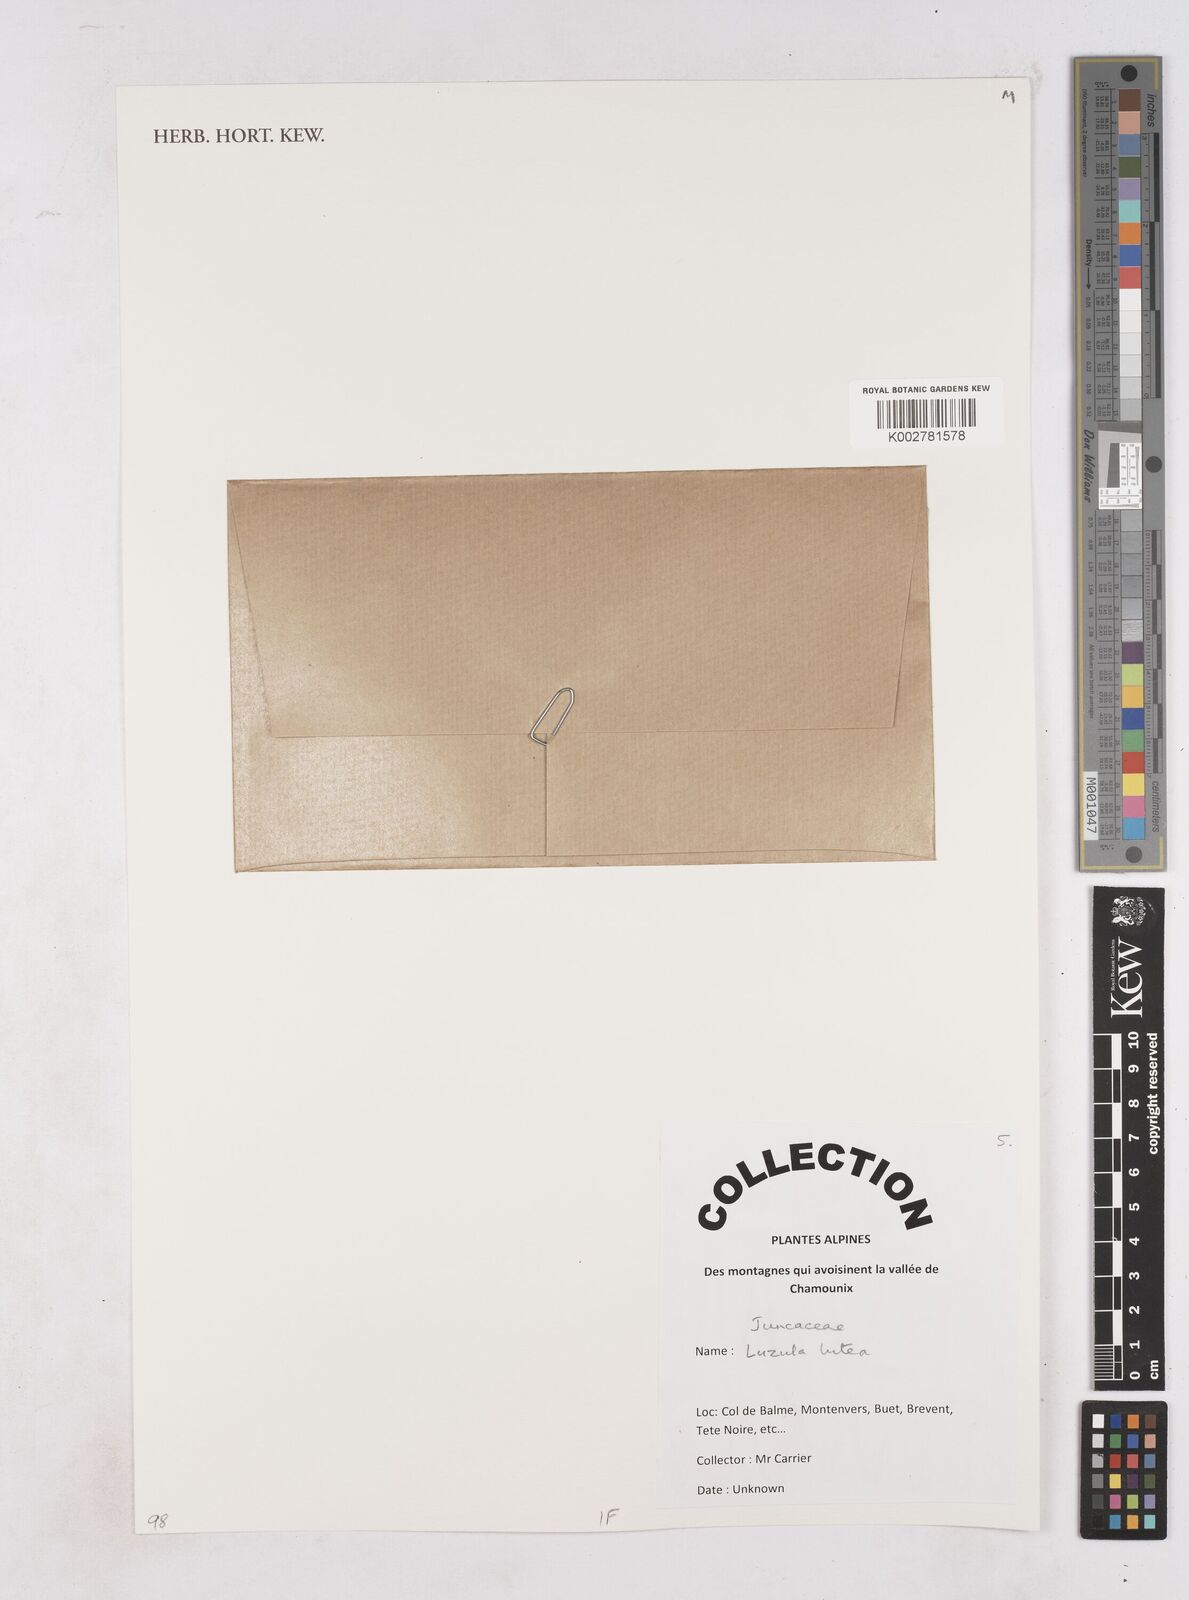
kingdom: Plantae
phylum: Tracheophyta
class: Liliopsida
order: Poales
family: Juncaceae
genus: Luzula
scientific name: Luzula lutea
